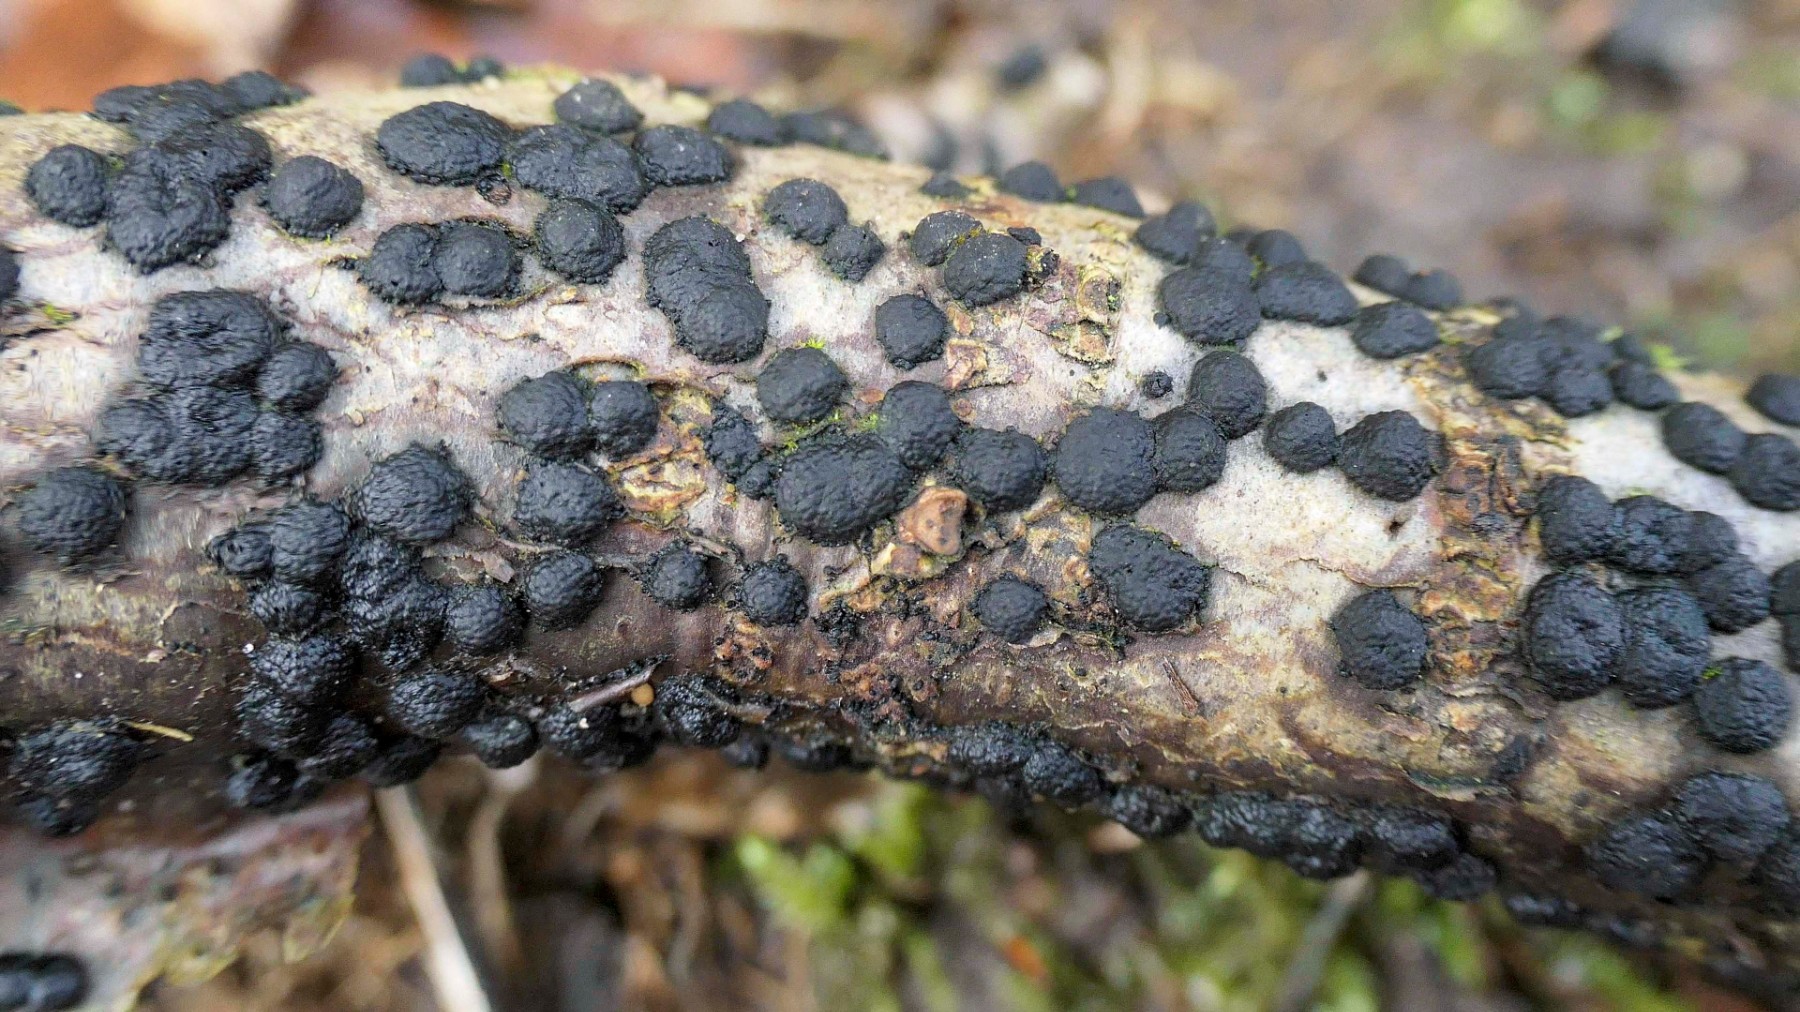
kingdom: Fungi
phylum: Ascomycota
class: Sordariomycetes
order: Xylariales
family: Hypoxylaceae
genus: Jackrogersella
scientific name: Jackrogersella
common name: kulbær
